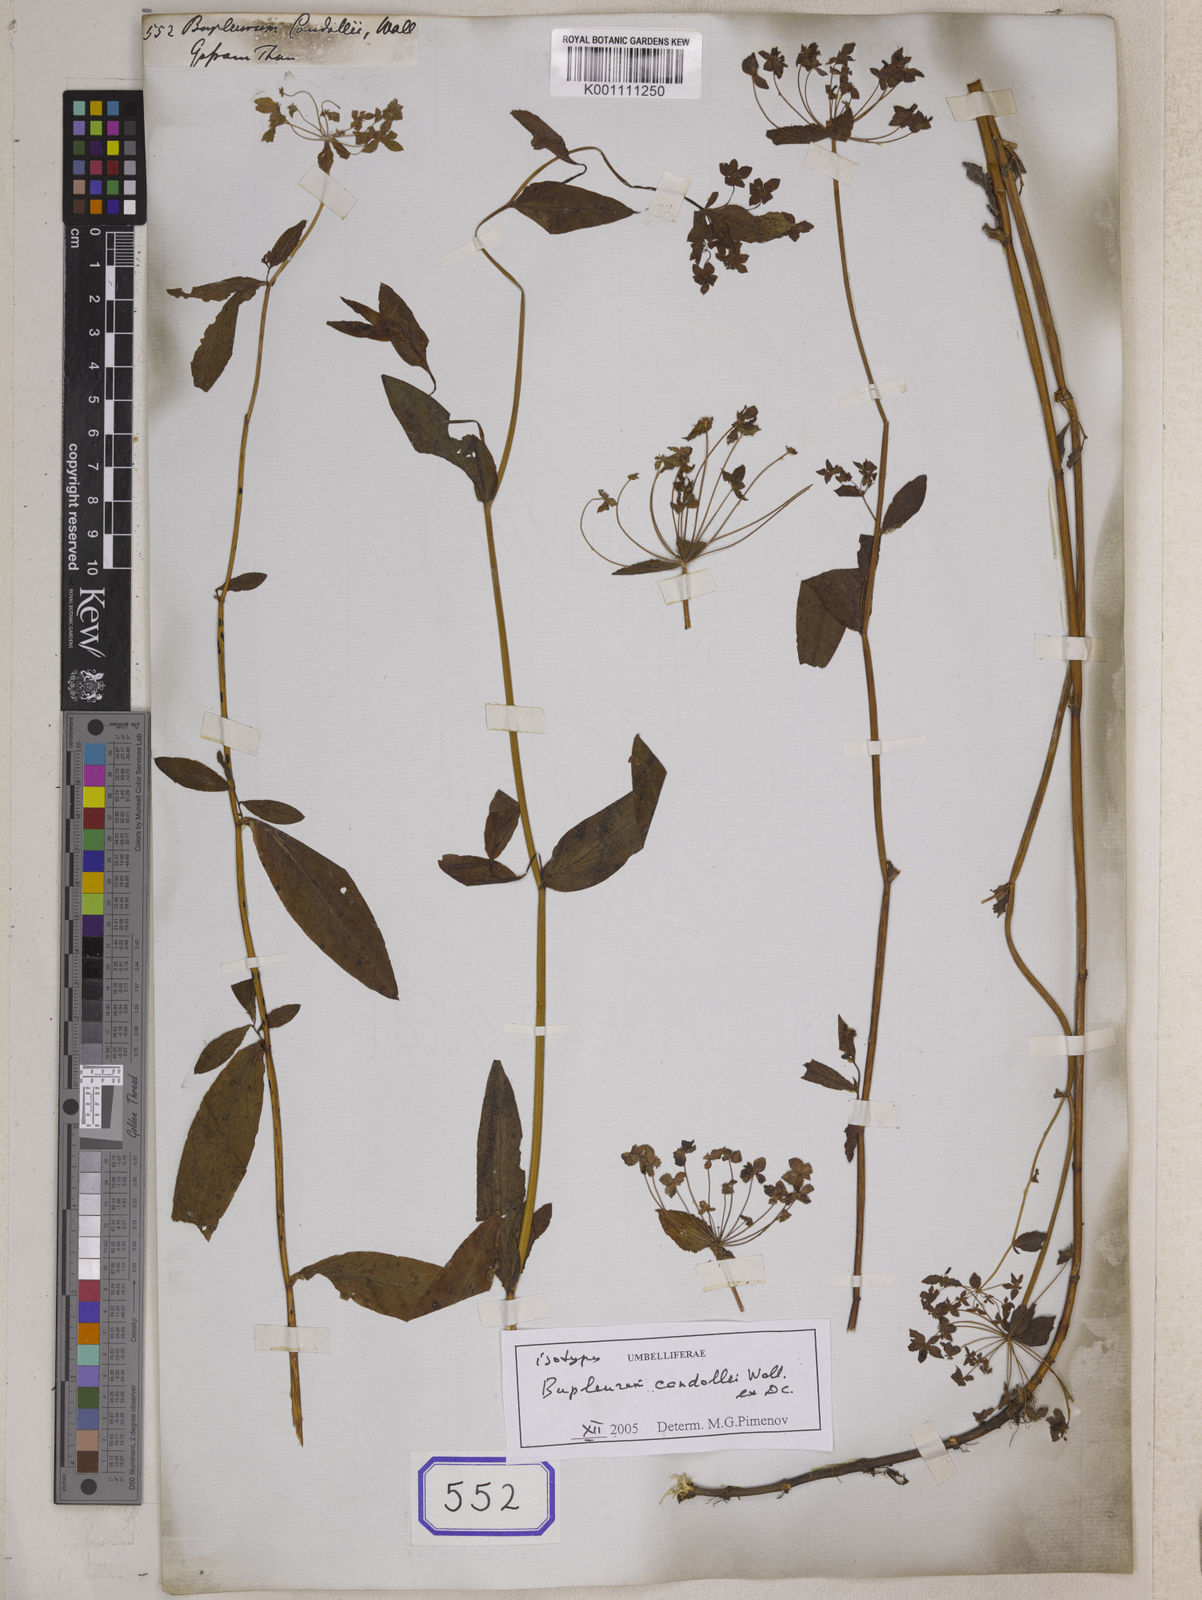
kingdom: Plantae
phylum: Tracheophyta
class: Magnoliopsida
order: Apiales
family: Apiaceae
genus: Bupleurum
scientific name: Bupleurum
